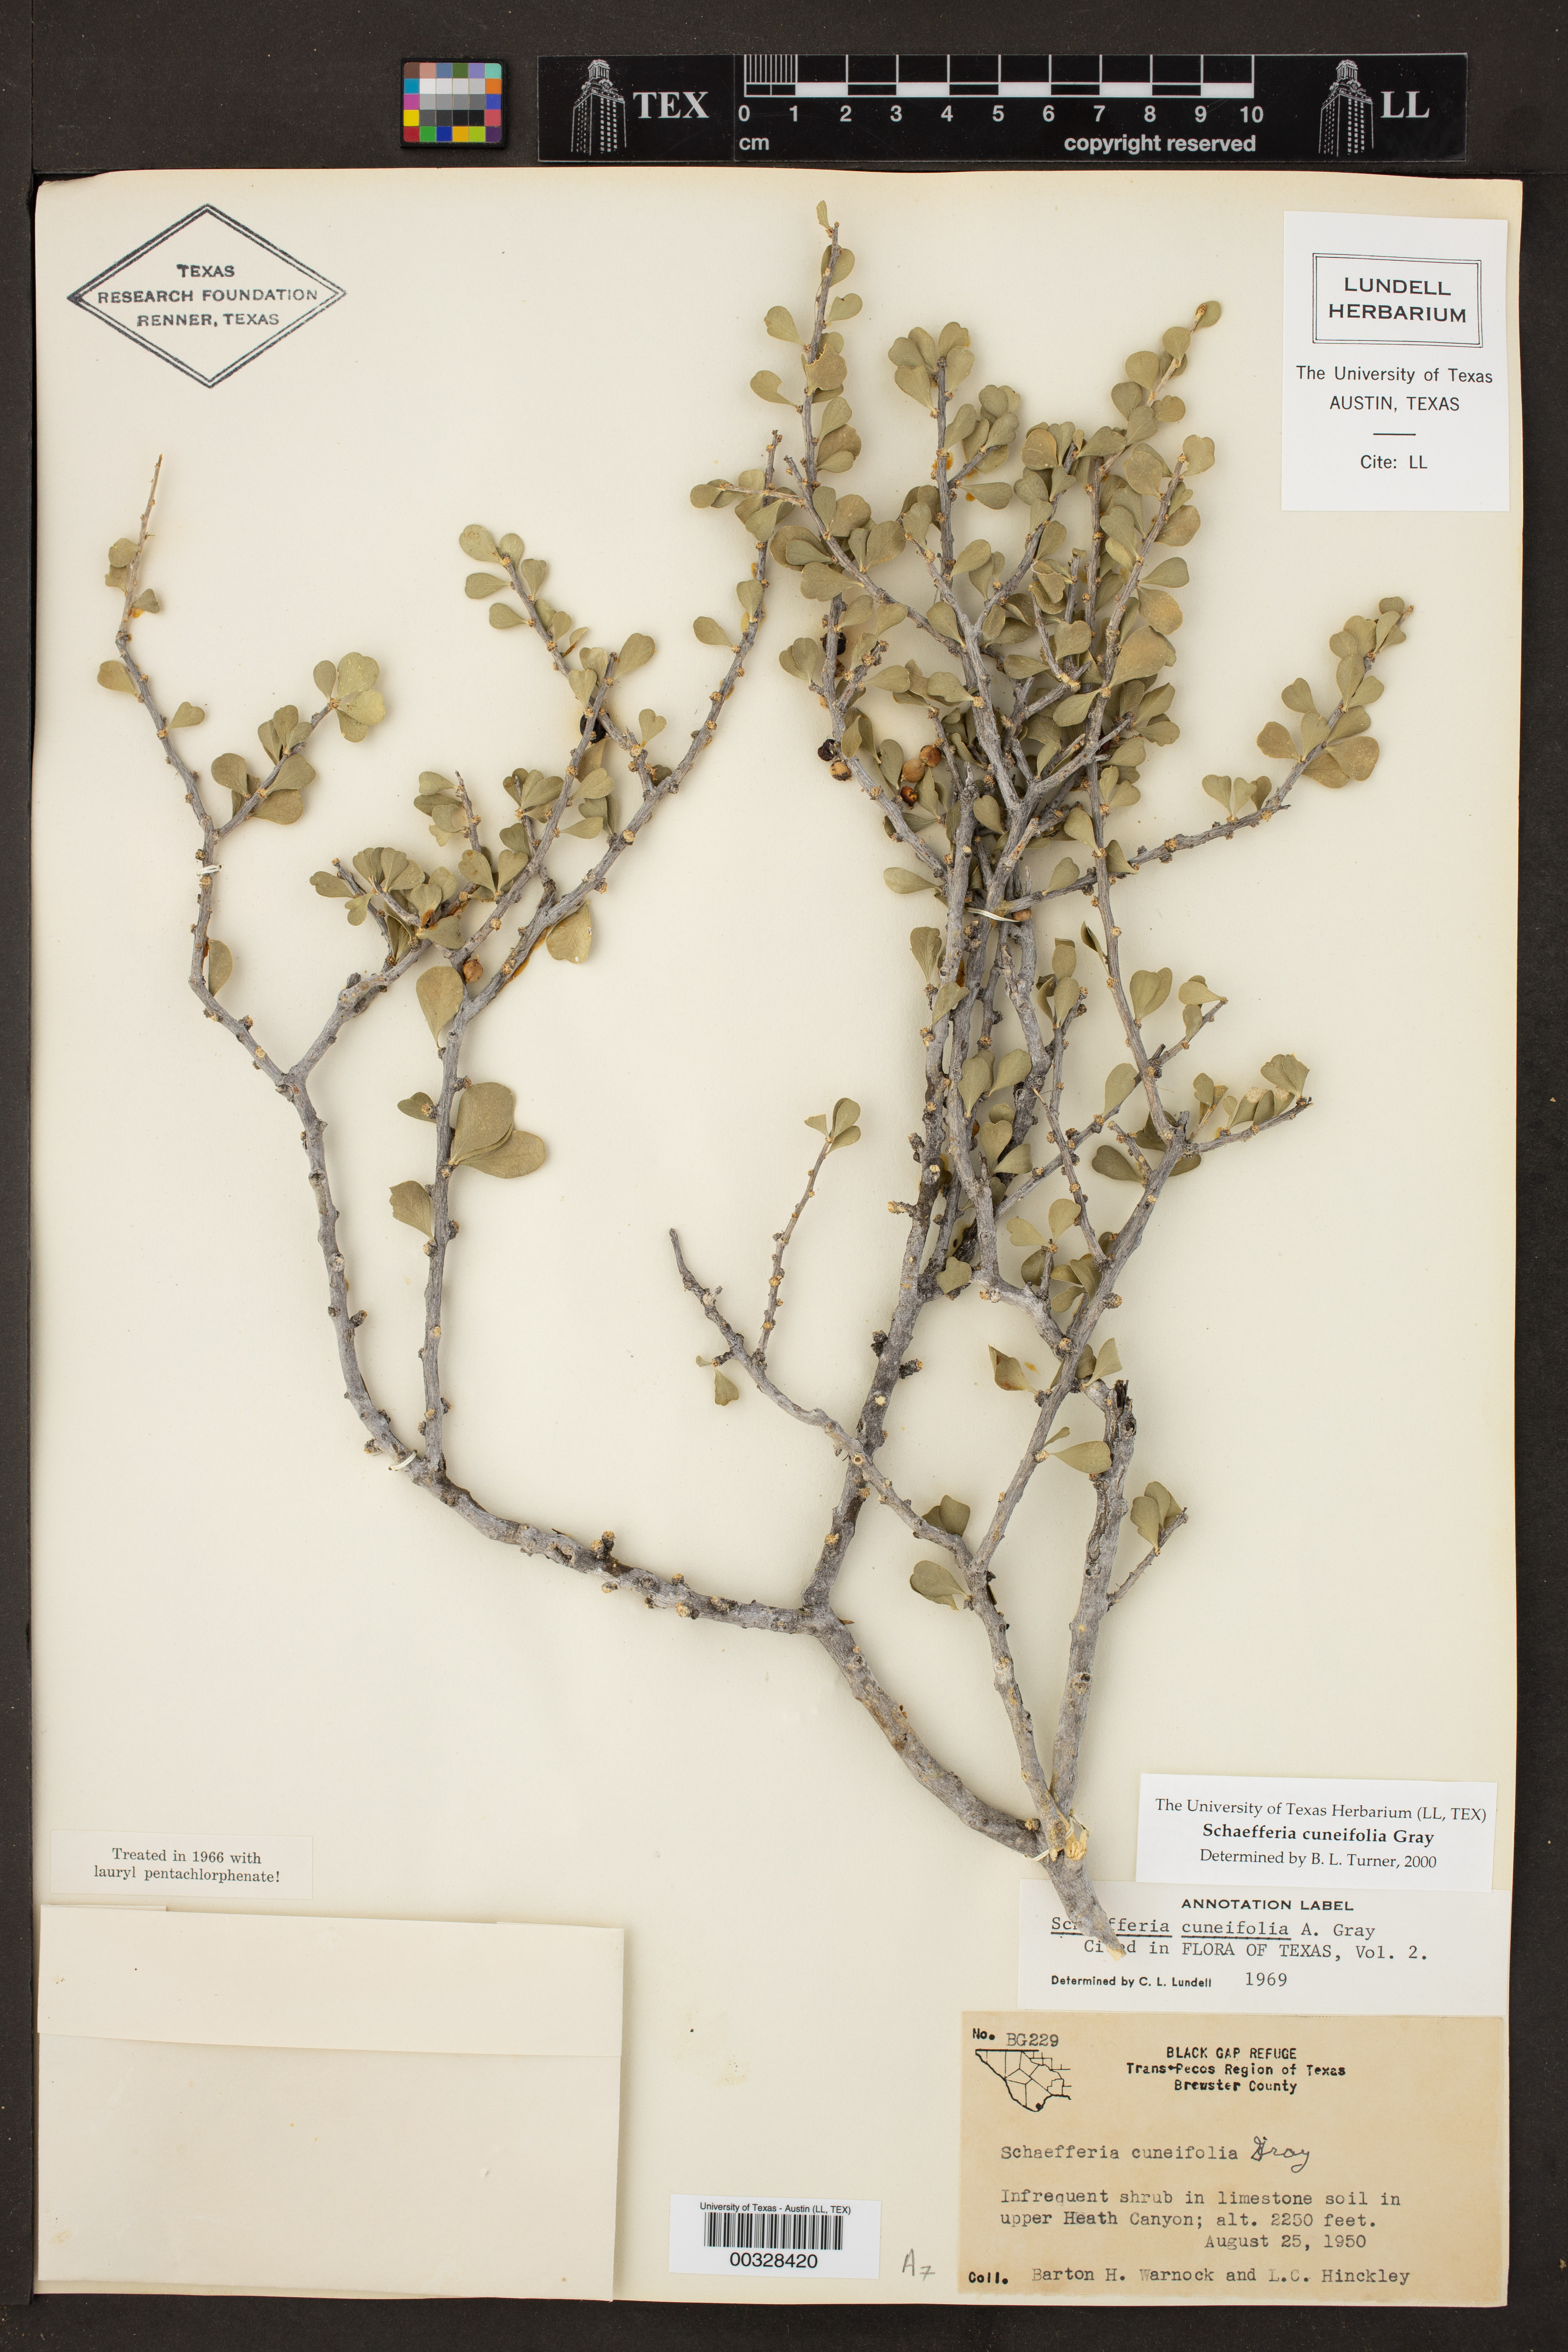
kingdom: Plantae
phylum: Tracheophyta
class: Magnoliopsida
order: Celastrales
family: Celastraceae
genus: Schaefferia
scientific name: Schaefferia cuneifolia
